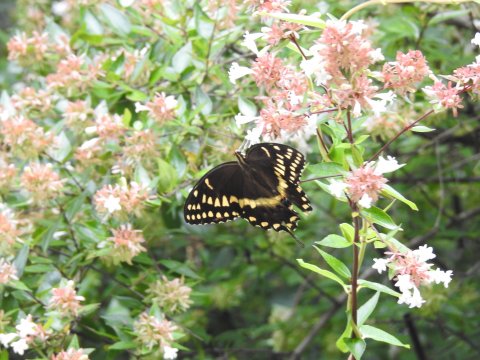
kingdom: Animalia
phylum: Arthropoda
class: Insecta
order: Lepidoptera
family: Papilionidae
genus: Pterourus
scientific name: Pterourus palamedes
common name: Palamedes Swallowtail
